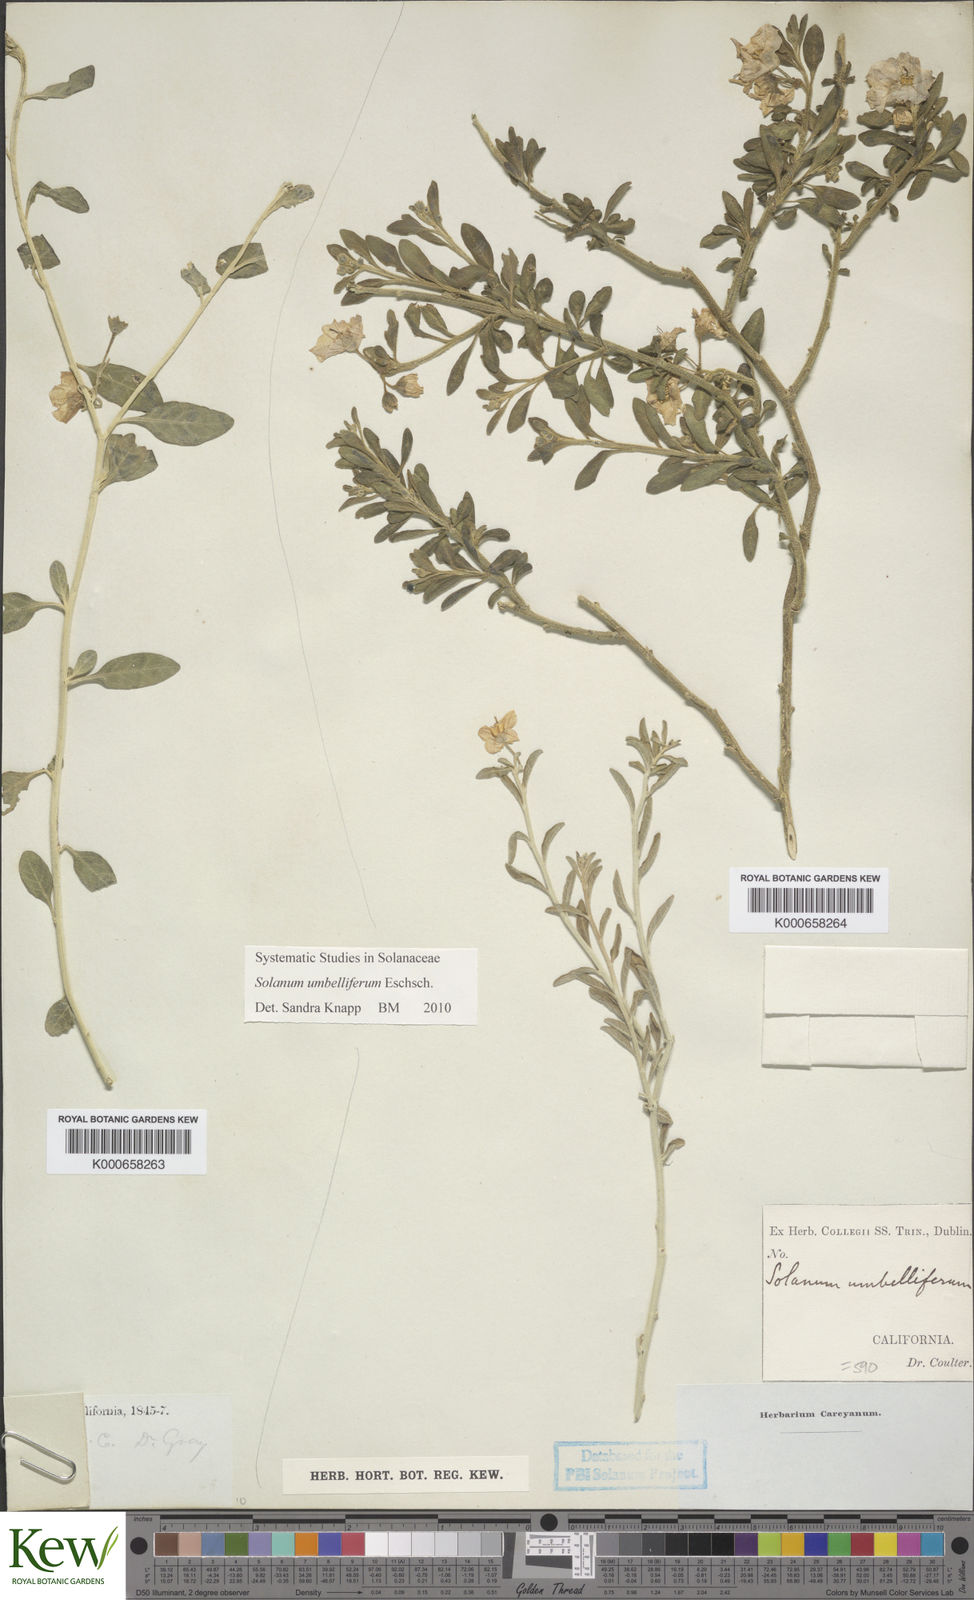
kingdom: Plantae
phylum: Tracheophyta
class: Magnoliopsida
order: Solanales
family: Solanaceae
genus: Solanum
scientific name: Solanum umbelliferum
